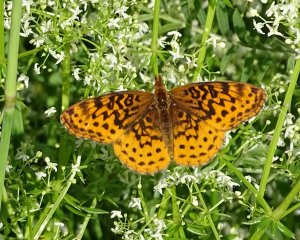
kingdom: Animalia
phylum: Arthropoda
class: Insecta
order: Lepidoptera
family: Nymphalidae
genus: Clossiana
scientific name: Clossiana toddi
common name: Meadow Fritillary
